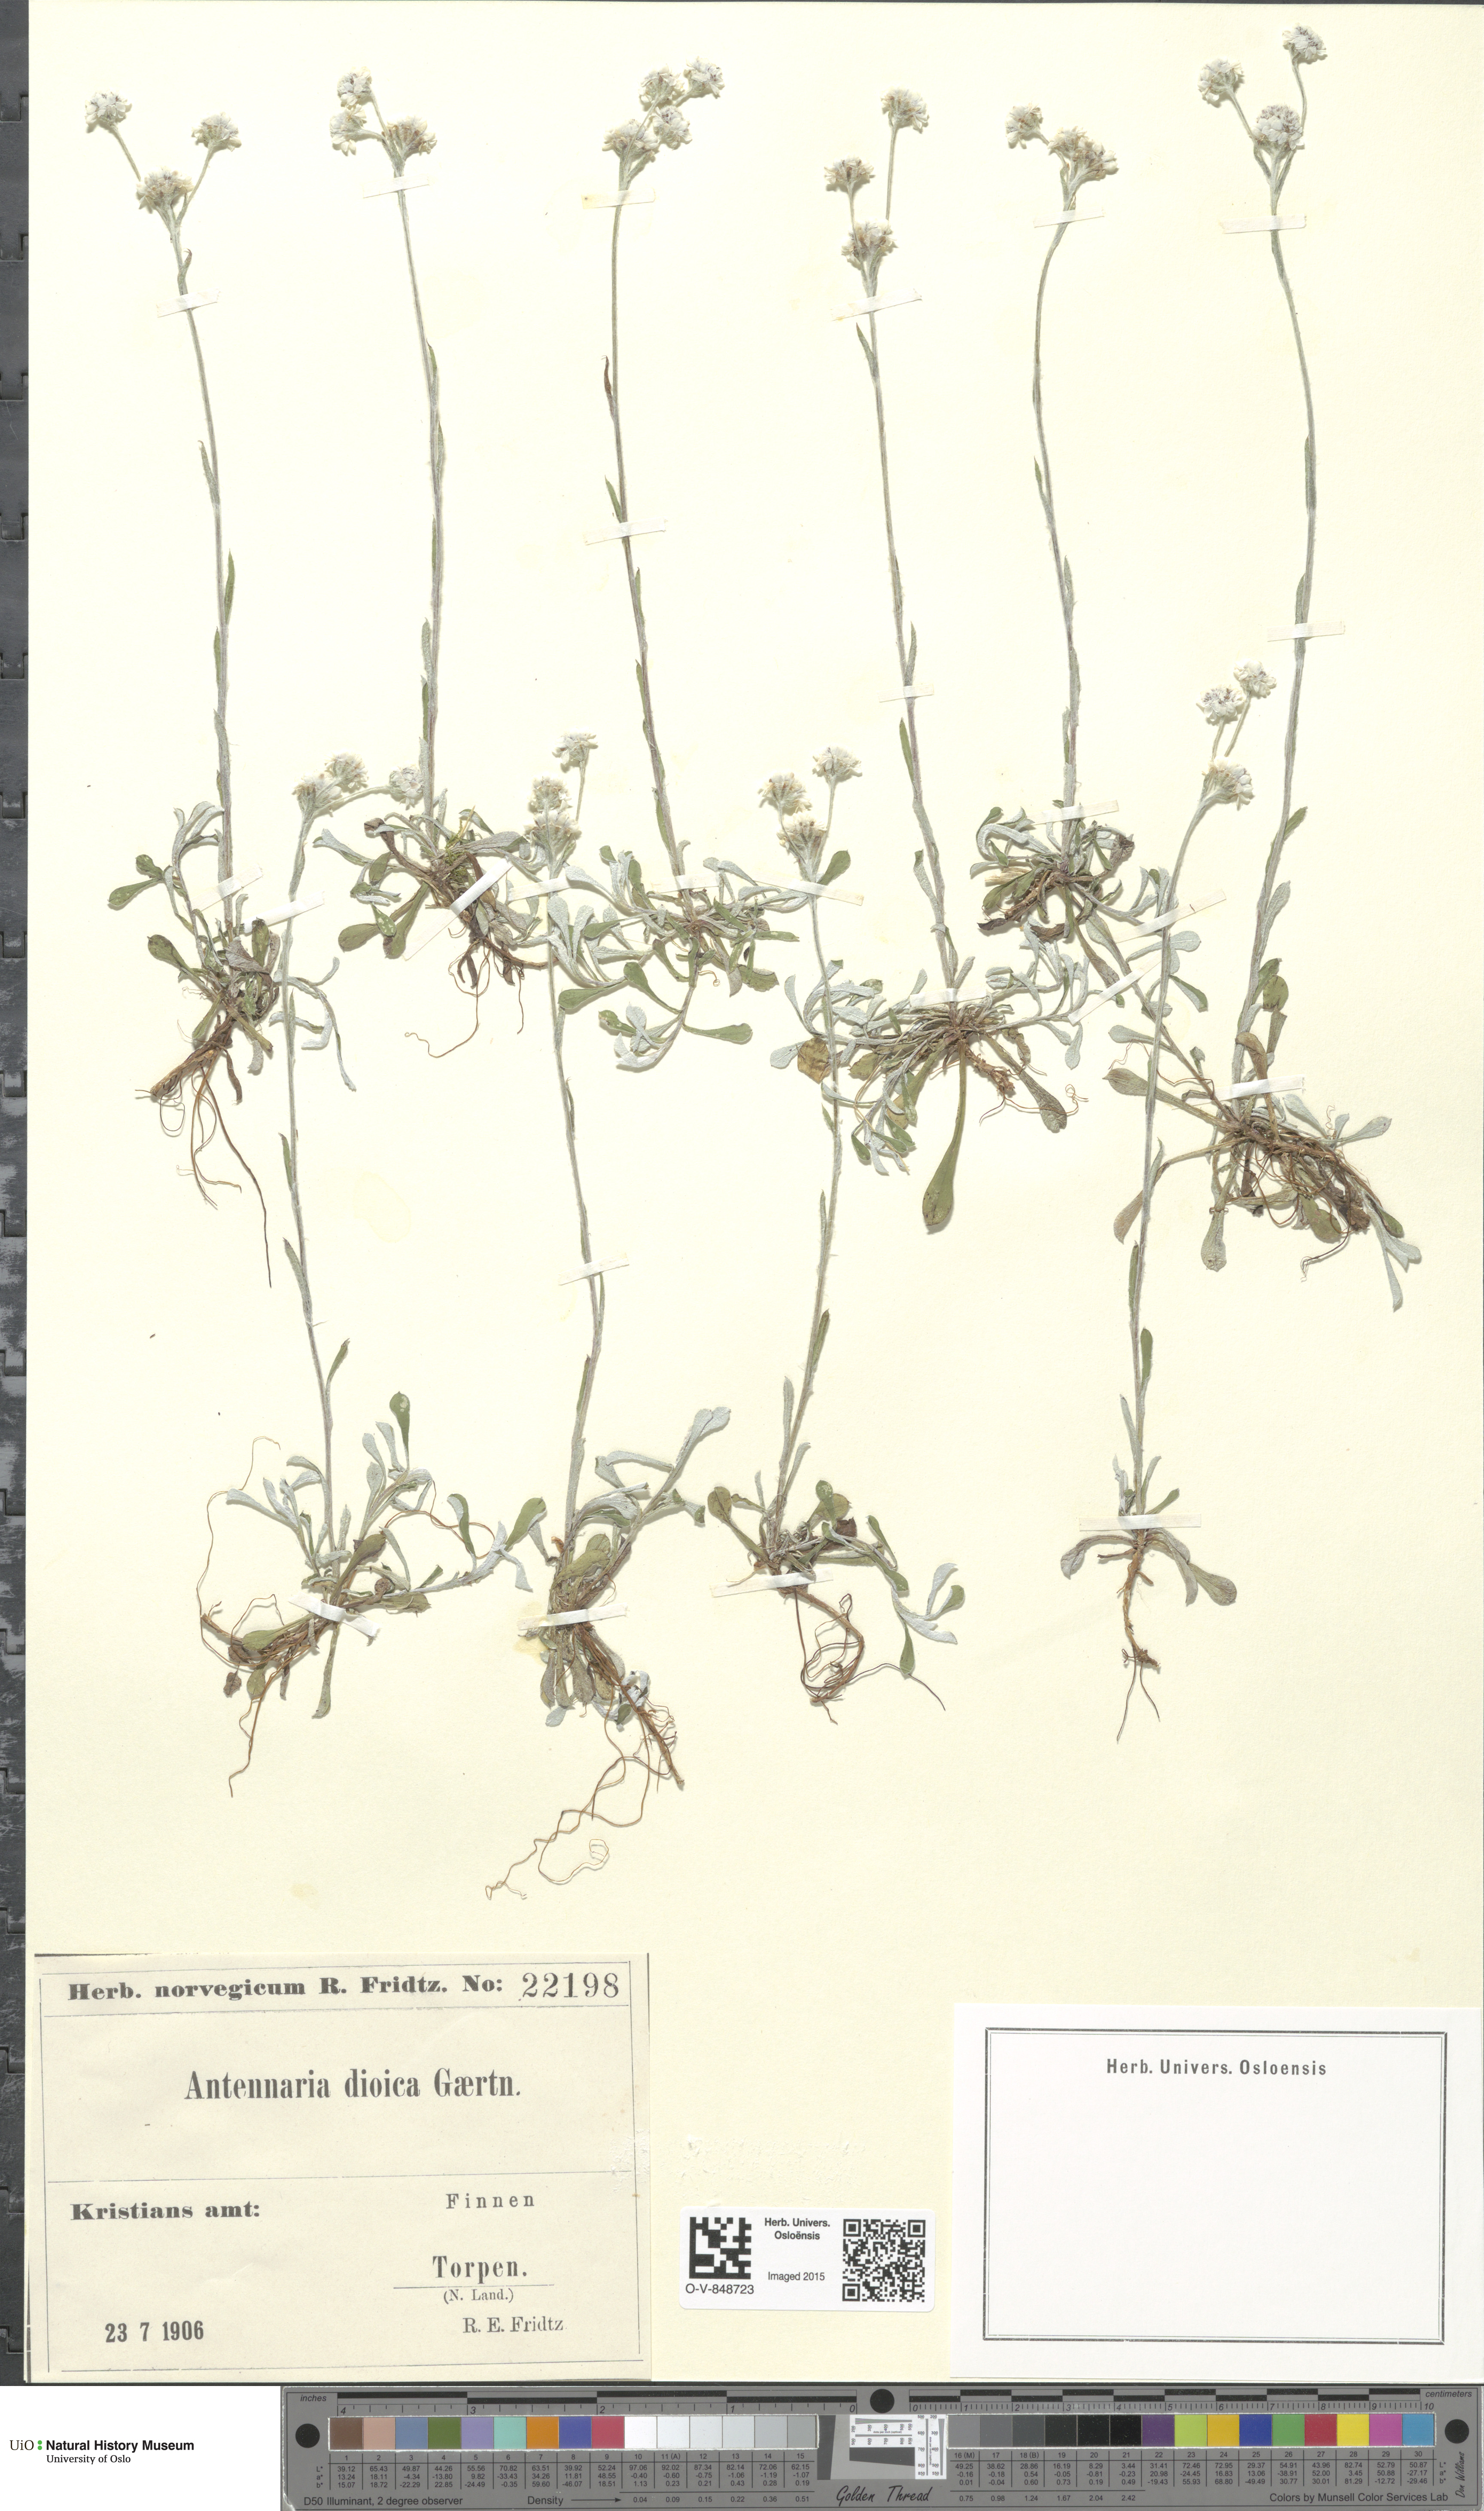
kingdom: Plantae
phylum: Tracheophyta
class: Magnoliopsida
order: Asterales
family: Asteraceae
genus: Antennaria
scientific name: Antennaria dioica
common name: Mountain everlasting
